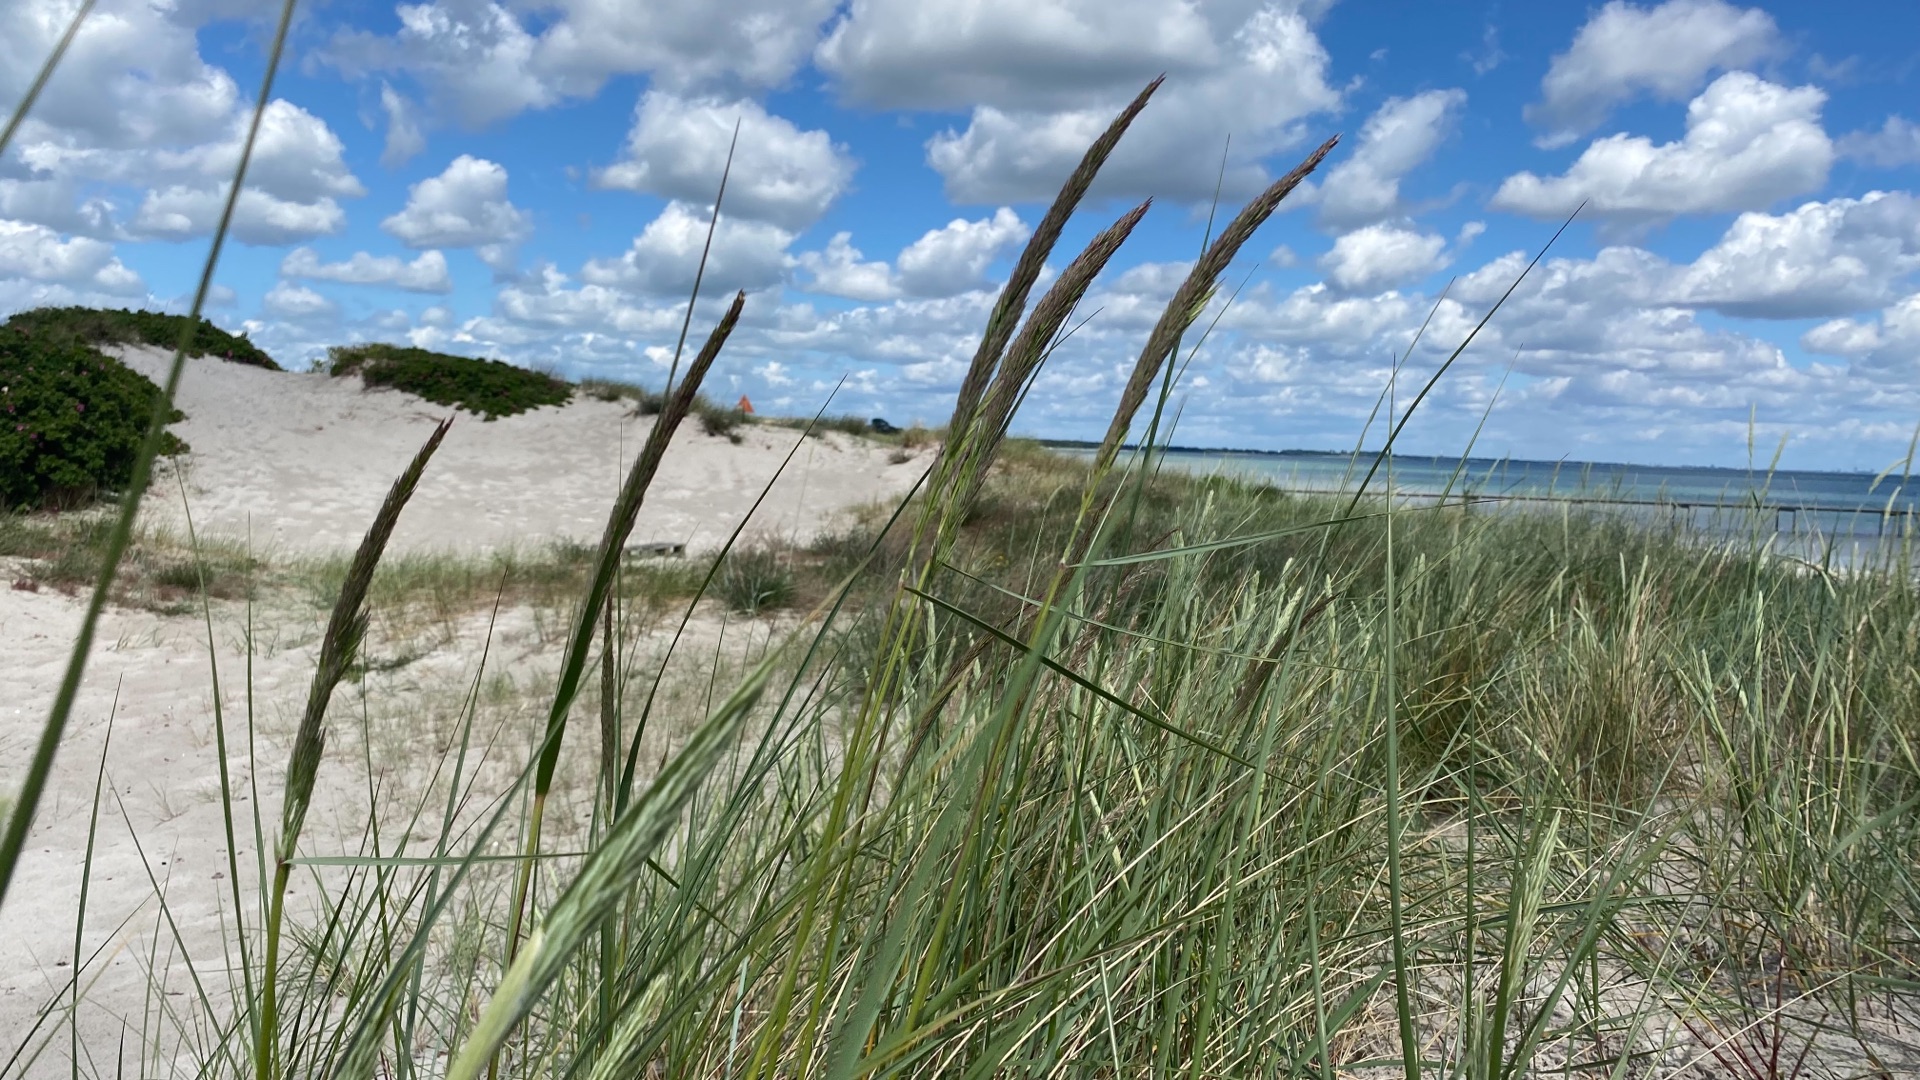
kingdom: Plantae
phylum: Tracheophyta
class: Liliopsida
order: Poales
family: Poaceae
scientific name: Poaceae
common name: Østersøhjælme
